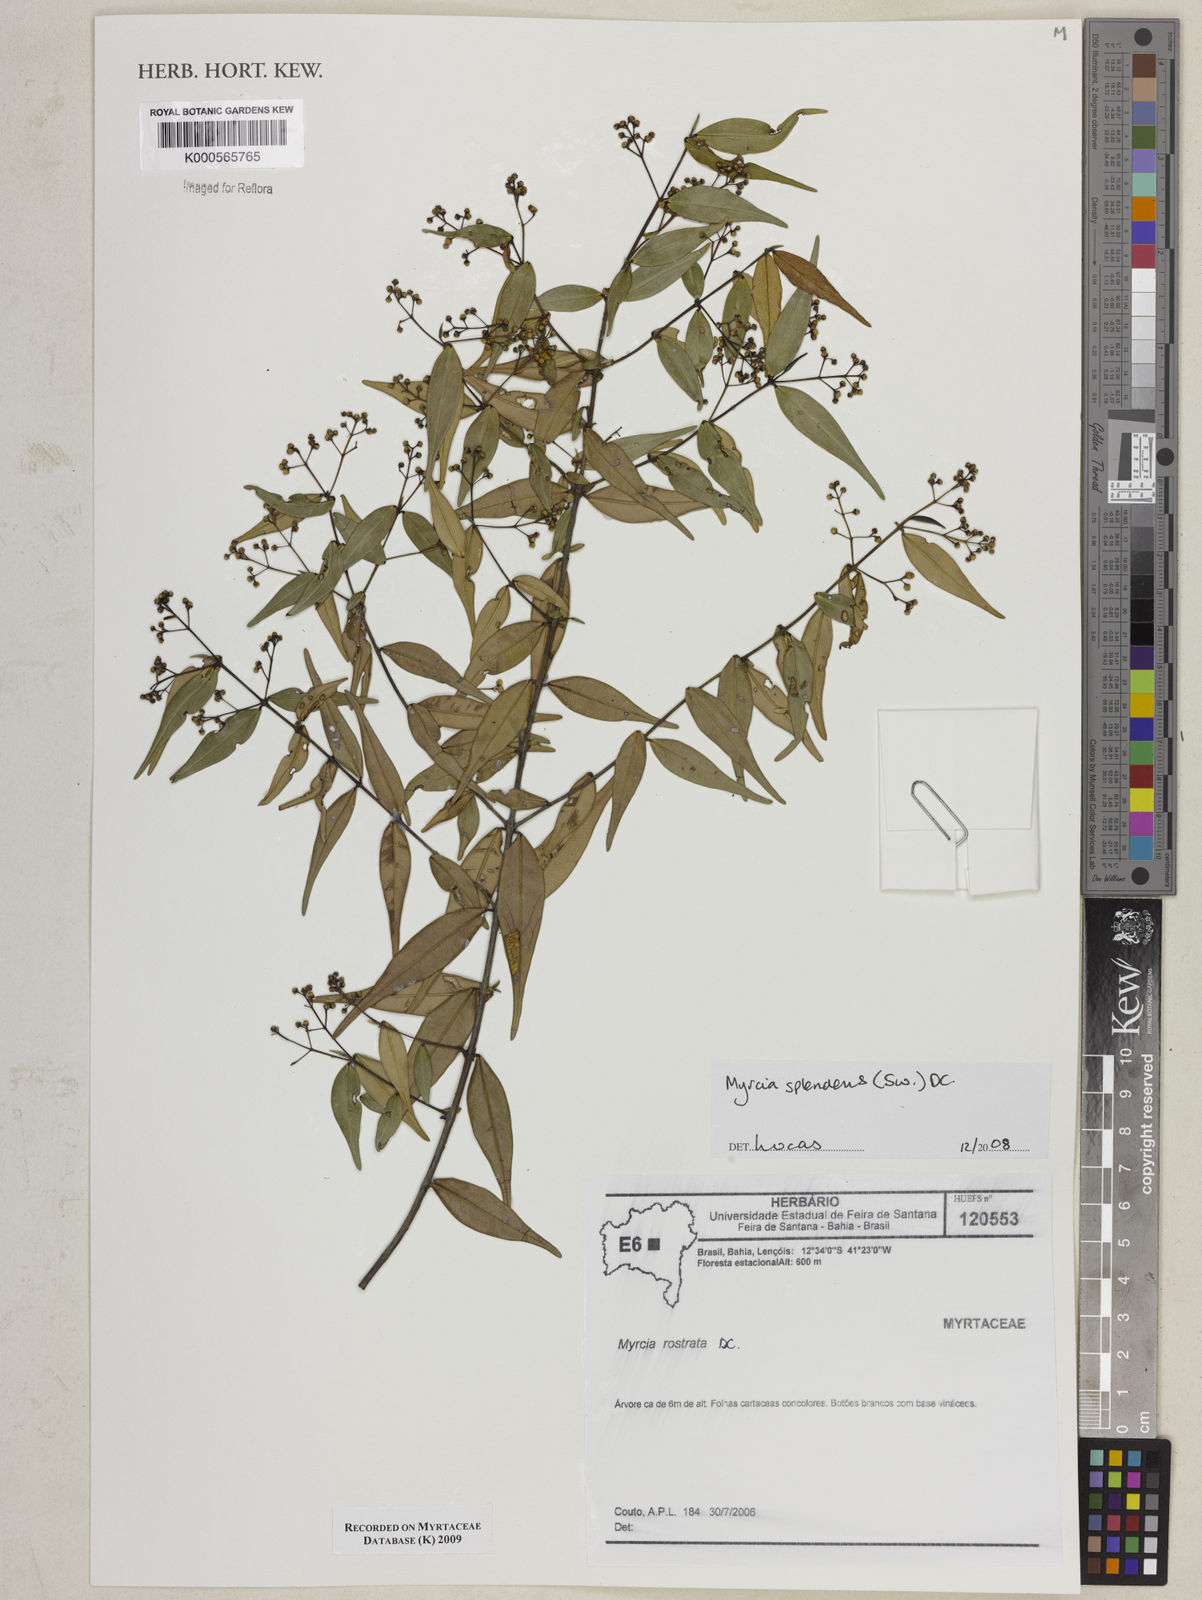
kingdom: Plantae
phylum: Tracheophyta
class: Magnoliopsida
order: Myrtales
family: Myrtaceae
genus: Myrcia
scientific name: Myrcia splendens
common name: Surinam cherry
